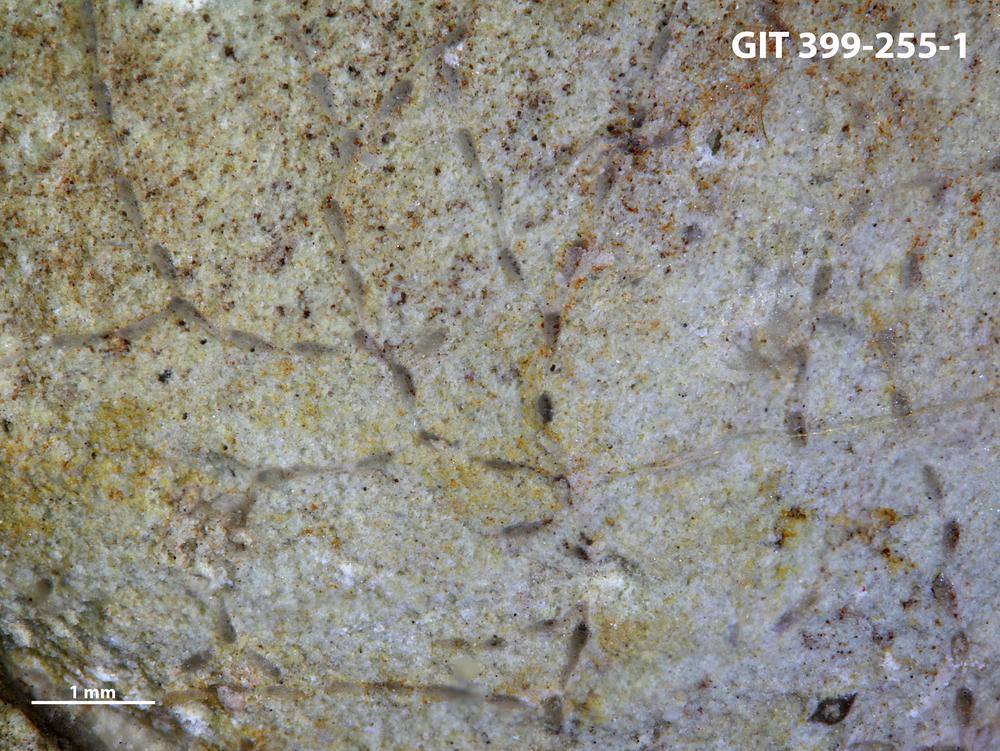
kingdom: Animalia
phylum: Bryozoa
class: Stenolaemata
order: Cyclostomatida
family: Corynotrypidae
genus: Corynotrypa
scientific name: Corynotrypa
